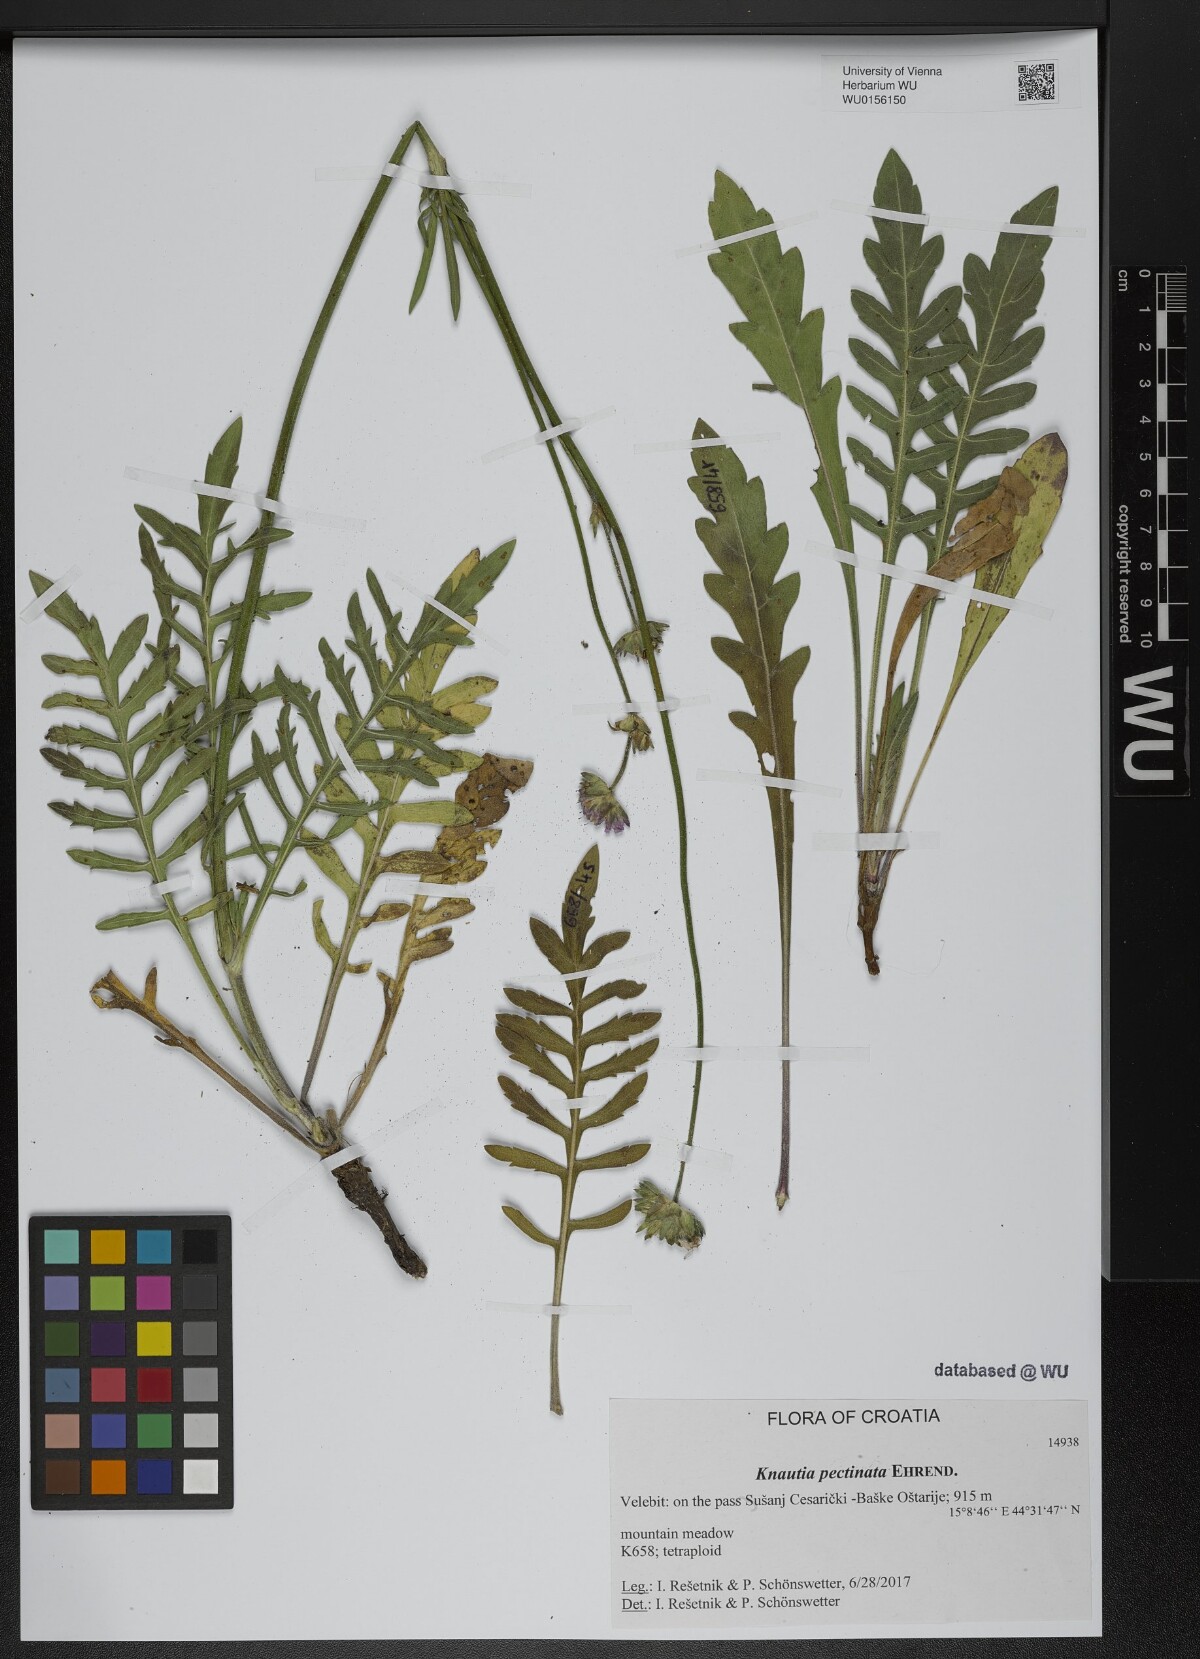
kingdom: Plantae
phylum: Tracheophyta
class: Magnoliopsida
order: Dipsacales
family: Caprifoliaceae
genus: Knautia
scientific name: Knautia pectinata
